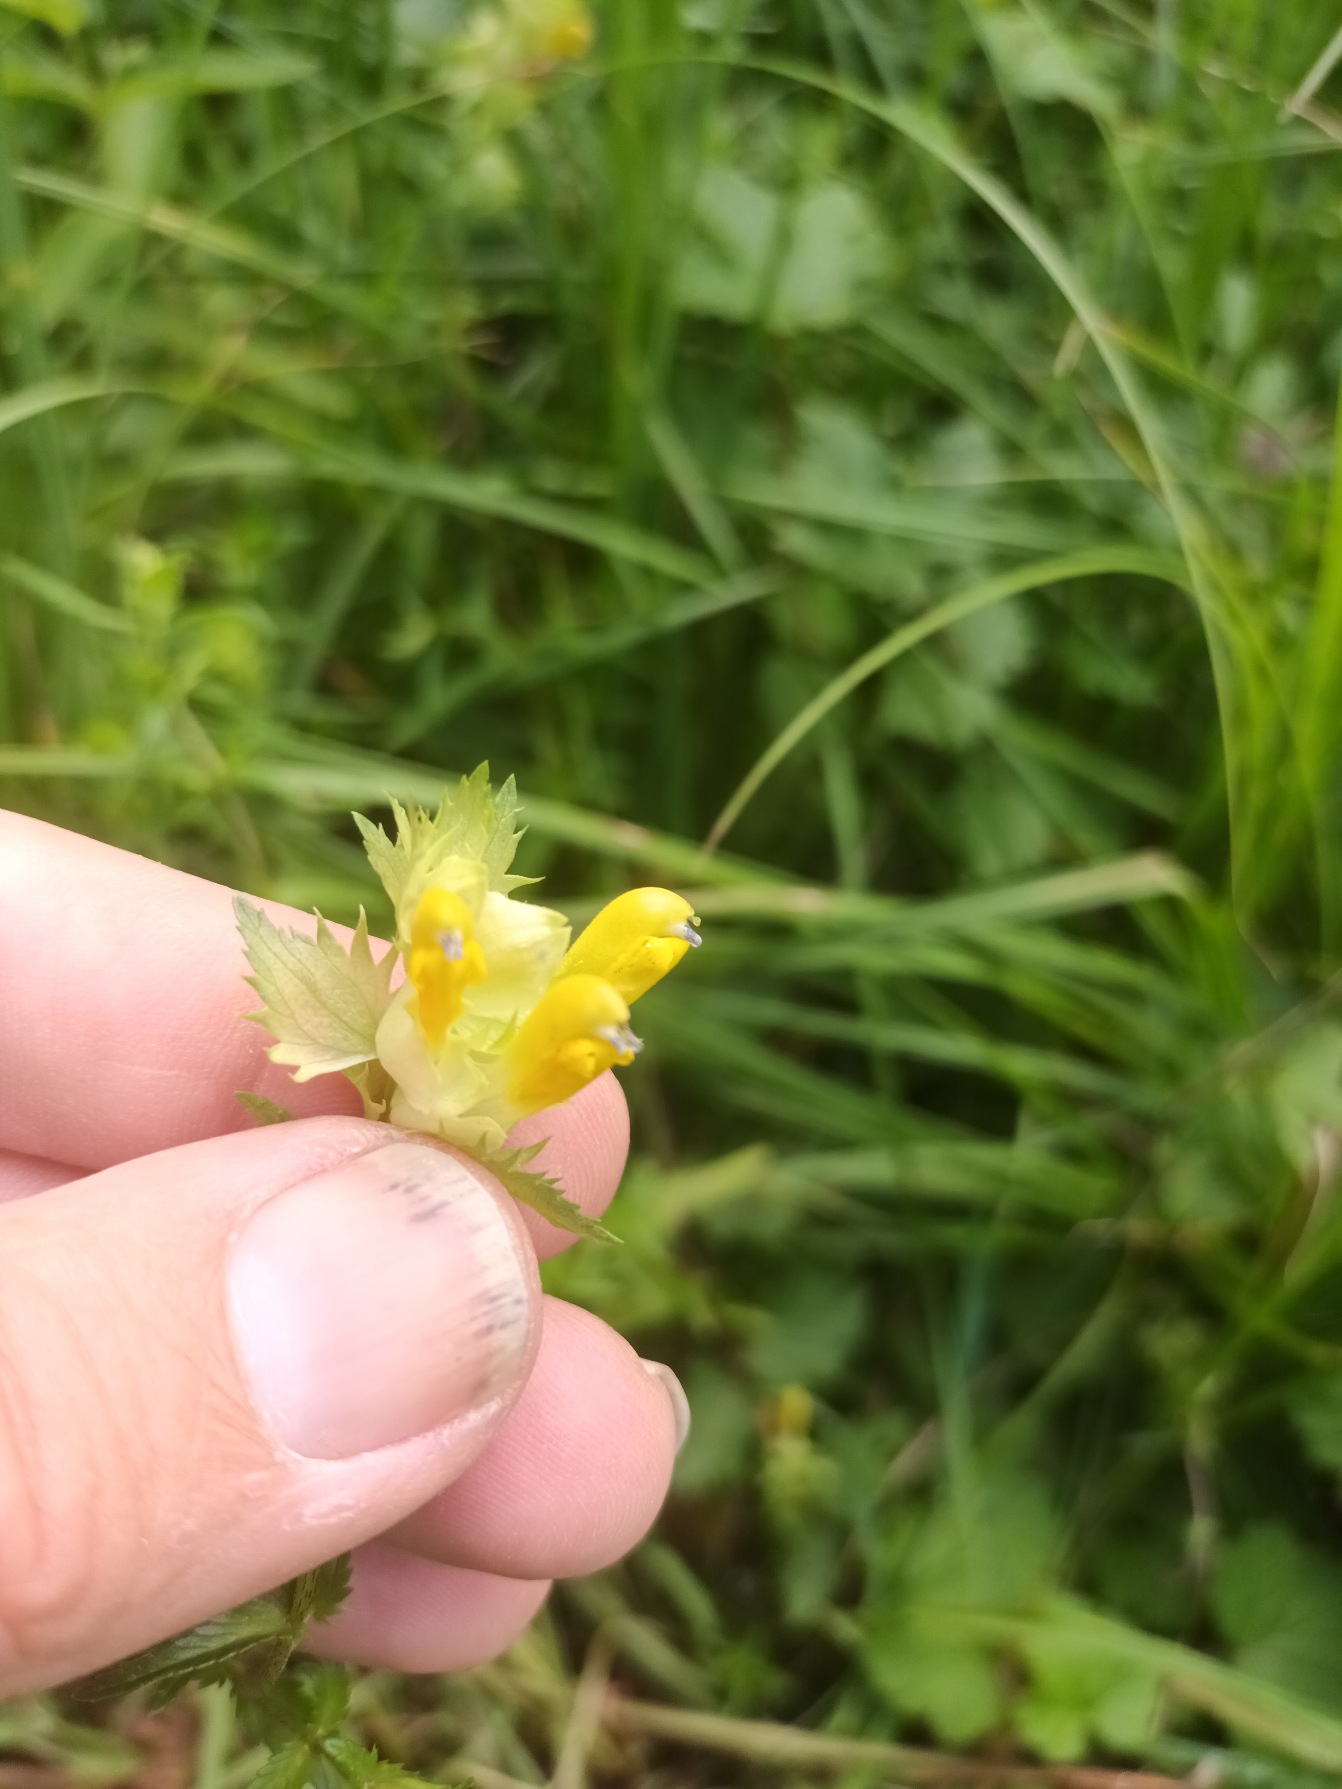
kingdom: Plantae
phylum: Tracheophyta
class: Magnoliopsida
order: Lamiales
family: Orobanchaceae
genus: Rhinanthus
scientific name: Rhinanthus
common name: Stor skjaller
